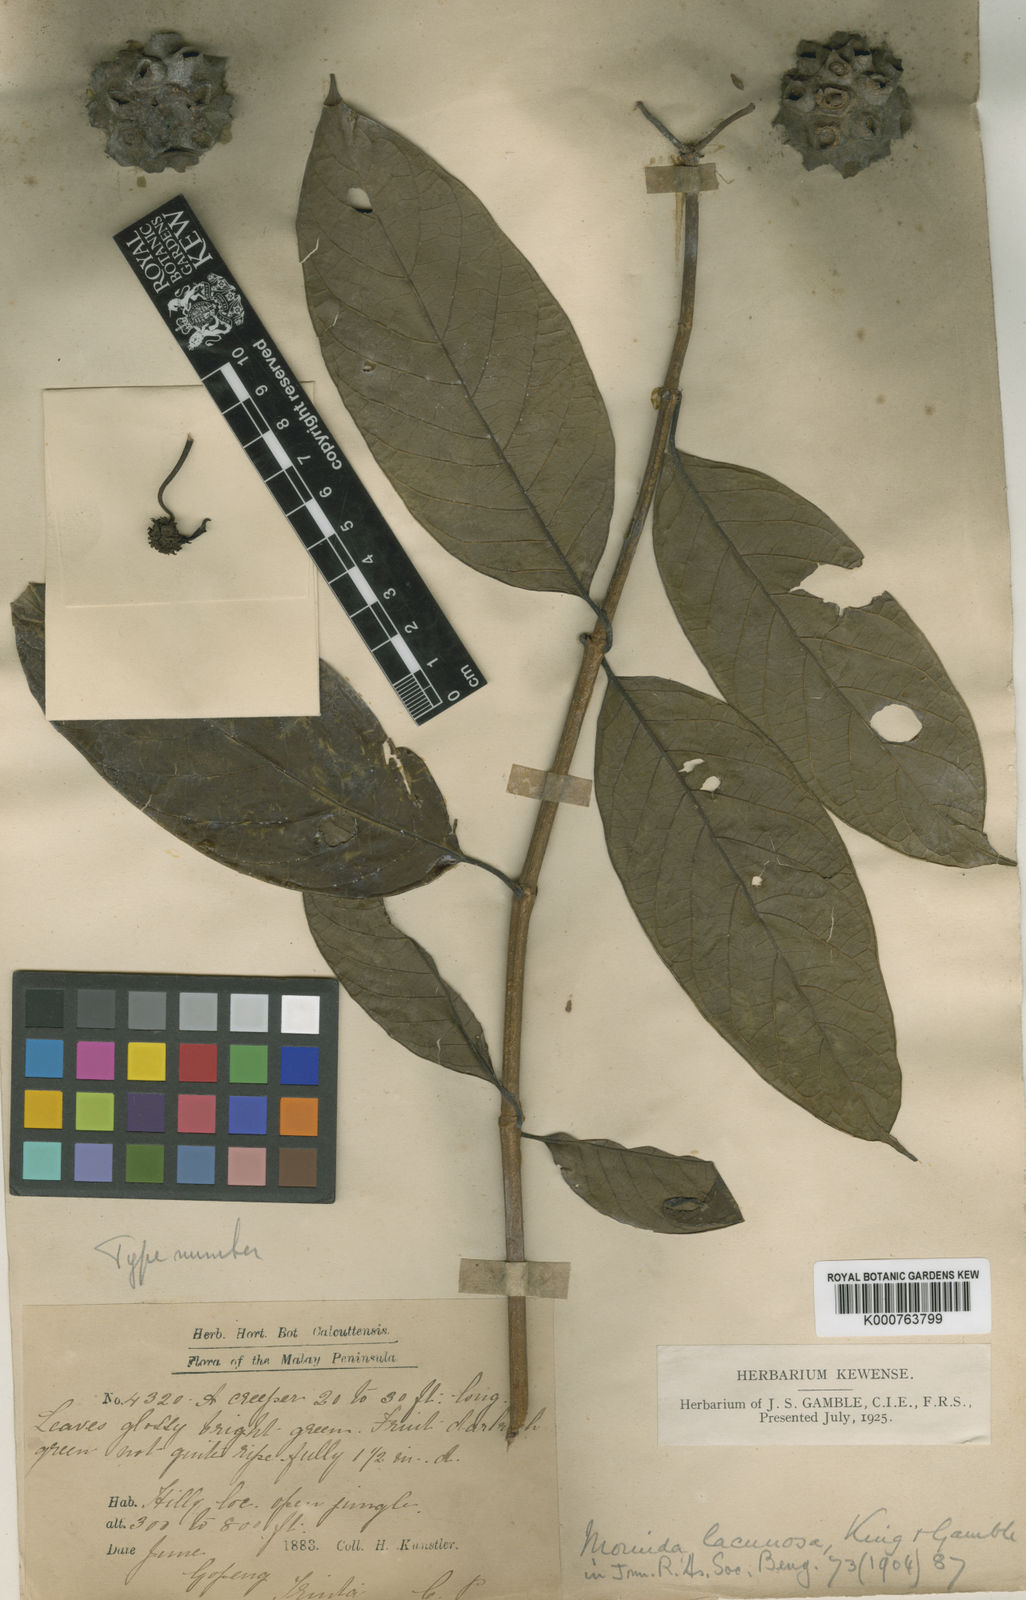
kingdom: Plantae
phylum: Tracheophyta
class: Magnoliopsida
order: Gentianales
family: Rubiaceae
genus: Gynochthodes
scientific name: Gynochthodes lacunosa
